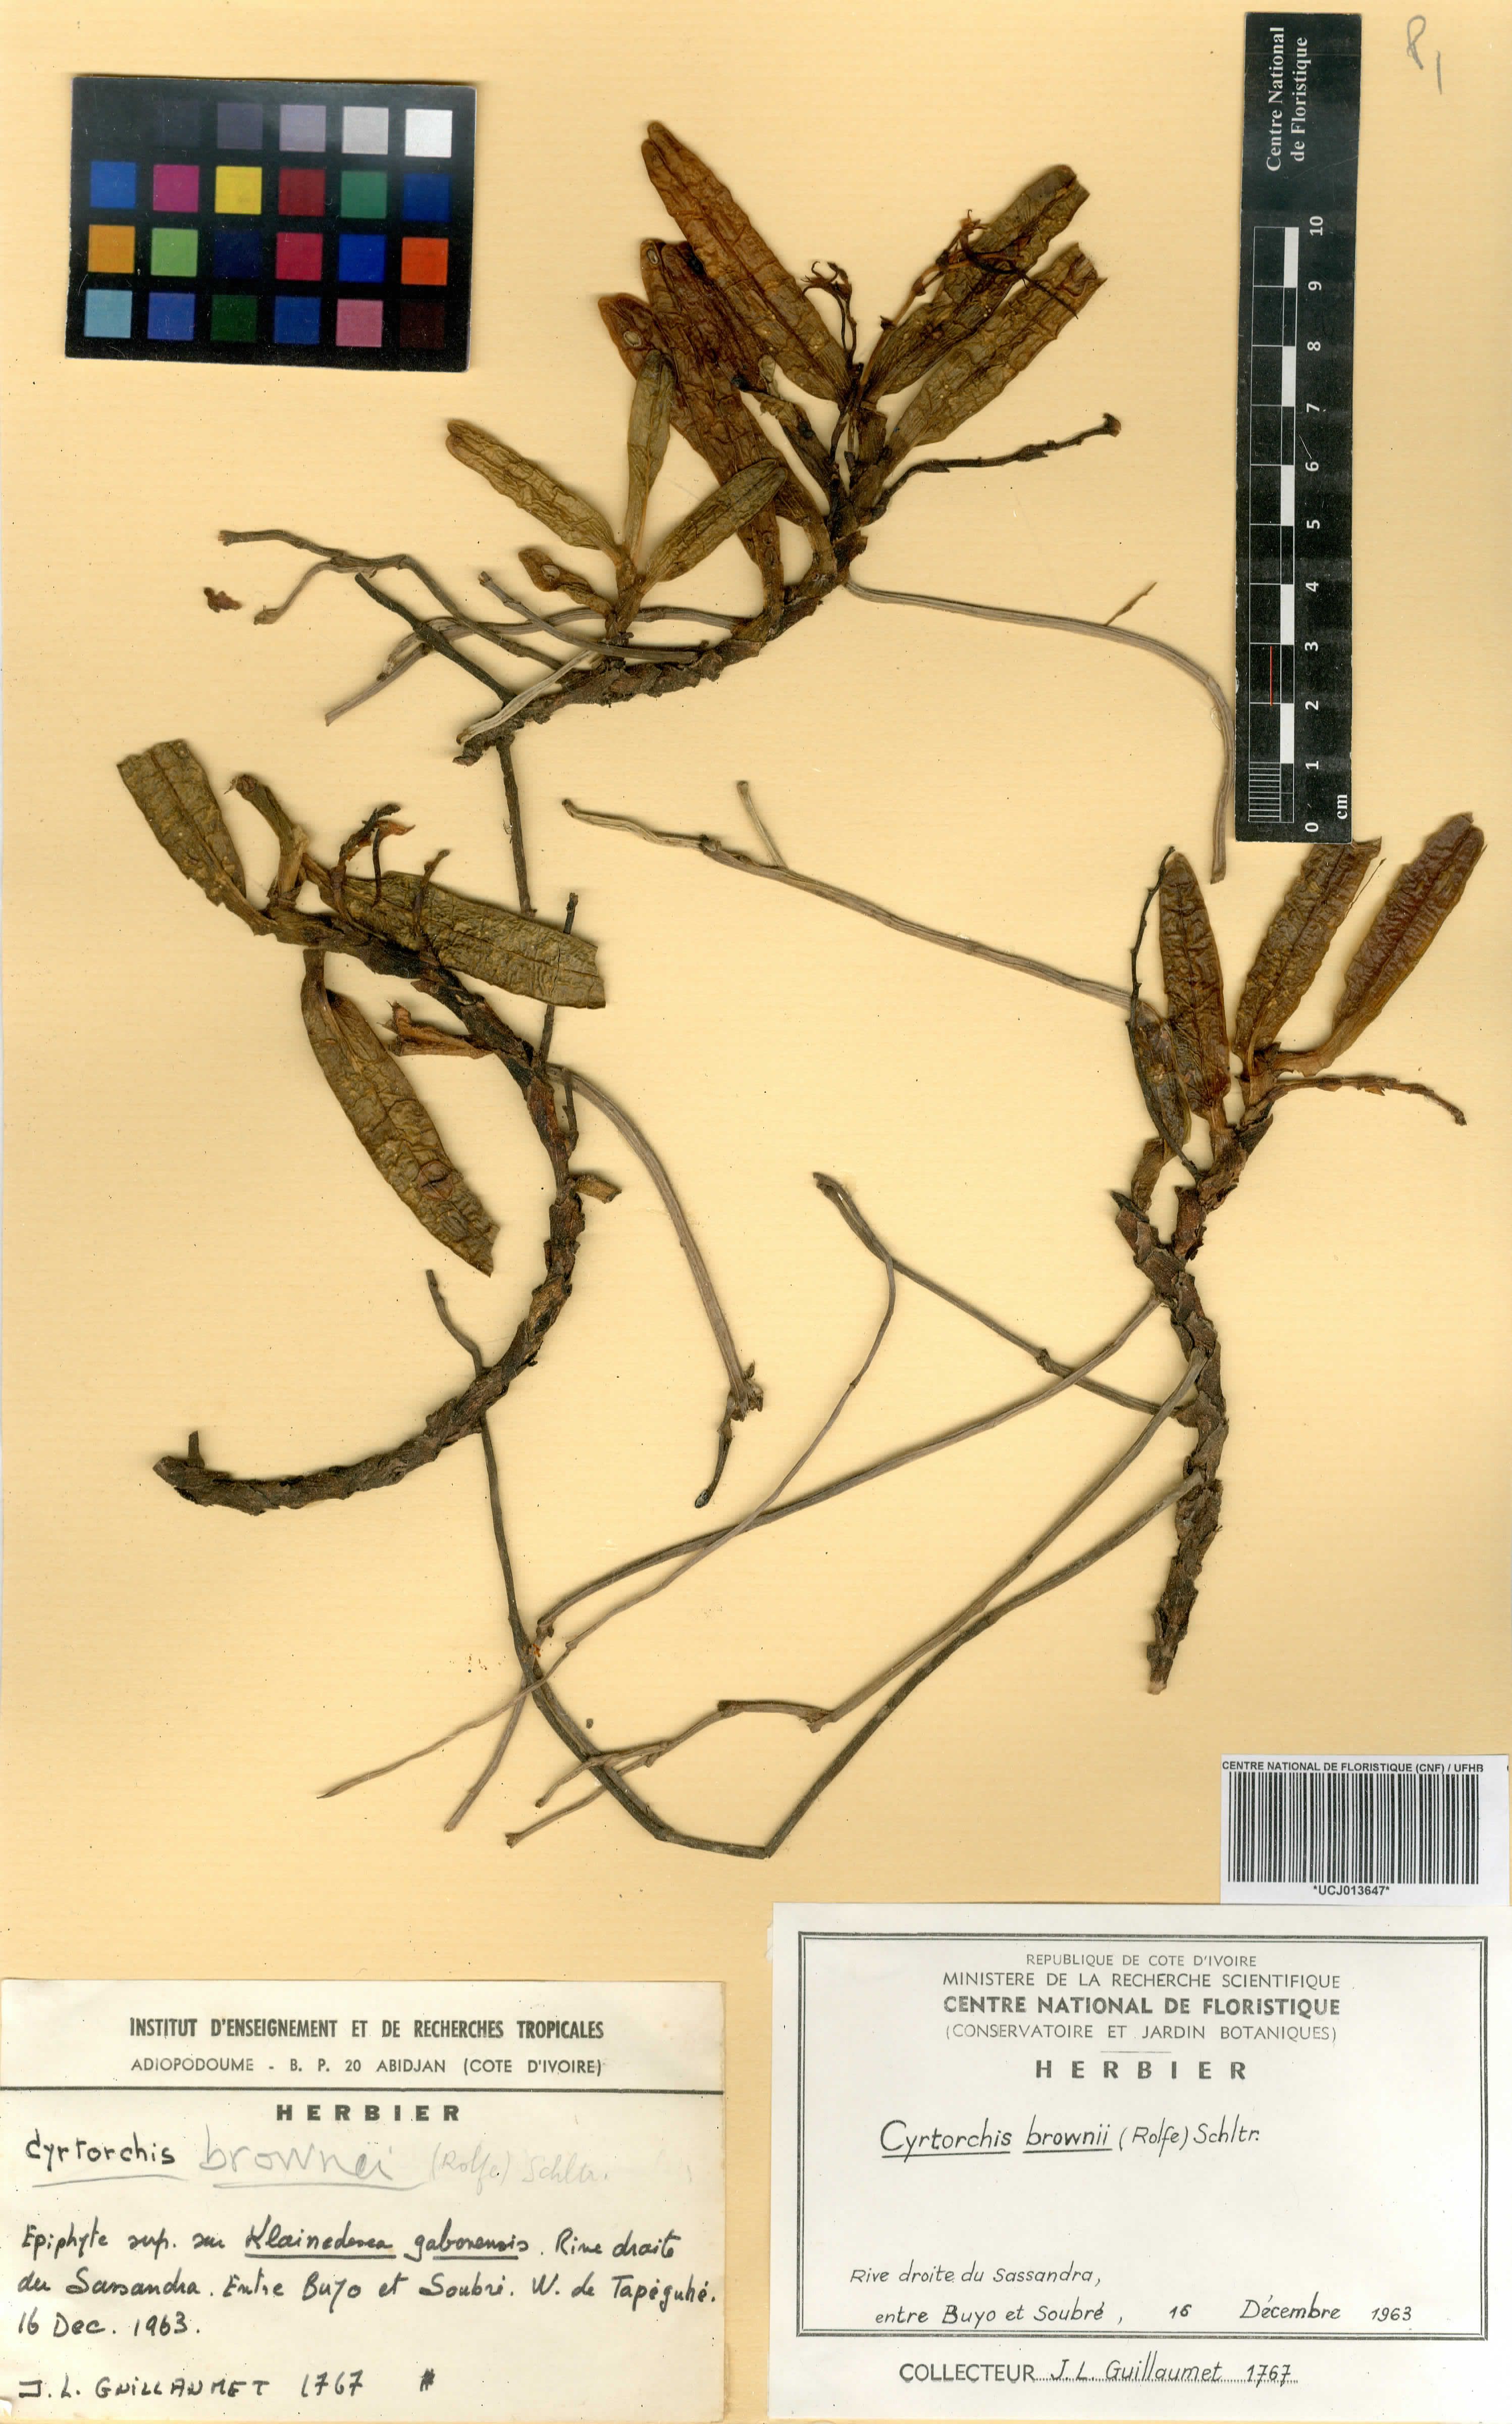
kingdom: Plantae
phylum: Tracheophyta
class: Liliopsida
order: Asparagales
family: Orchidaceae
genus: Cyrtorchis
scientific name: Cyrtorchis brownii
